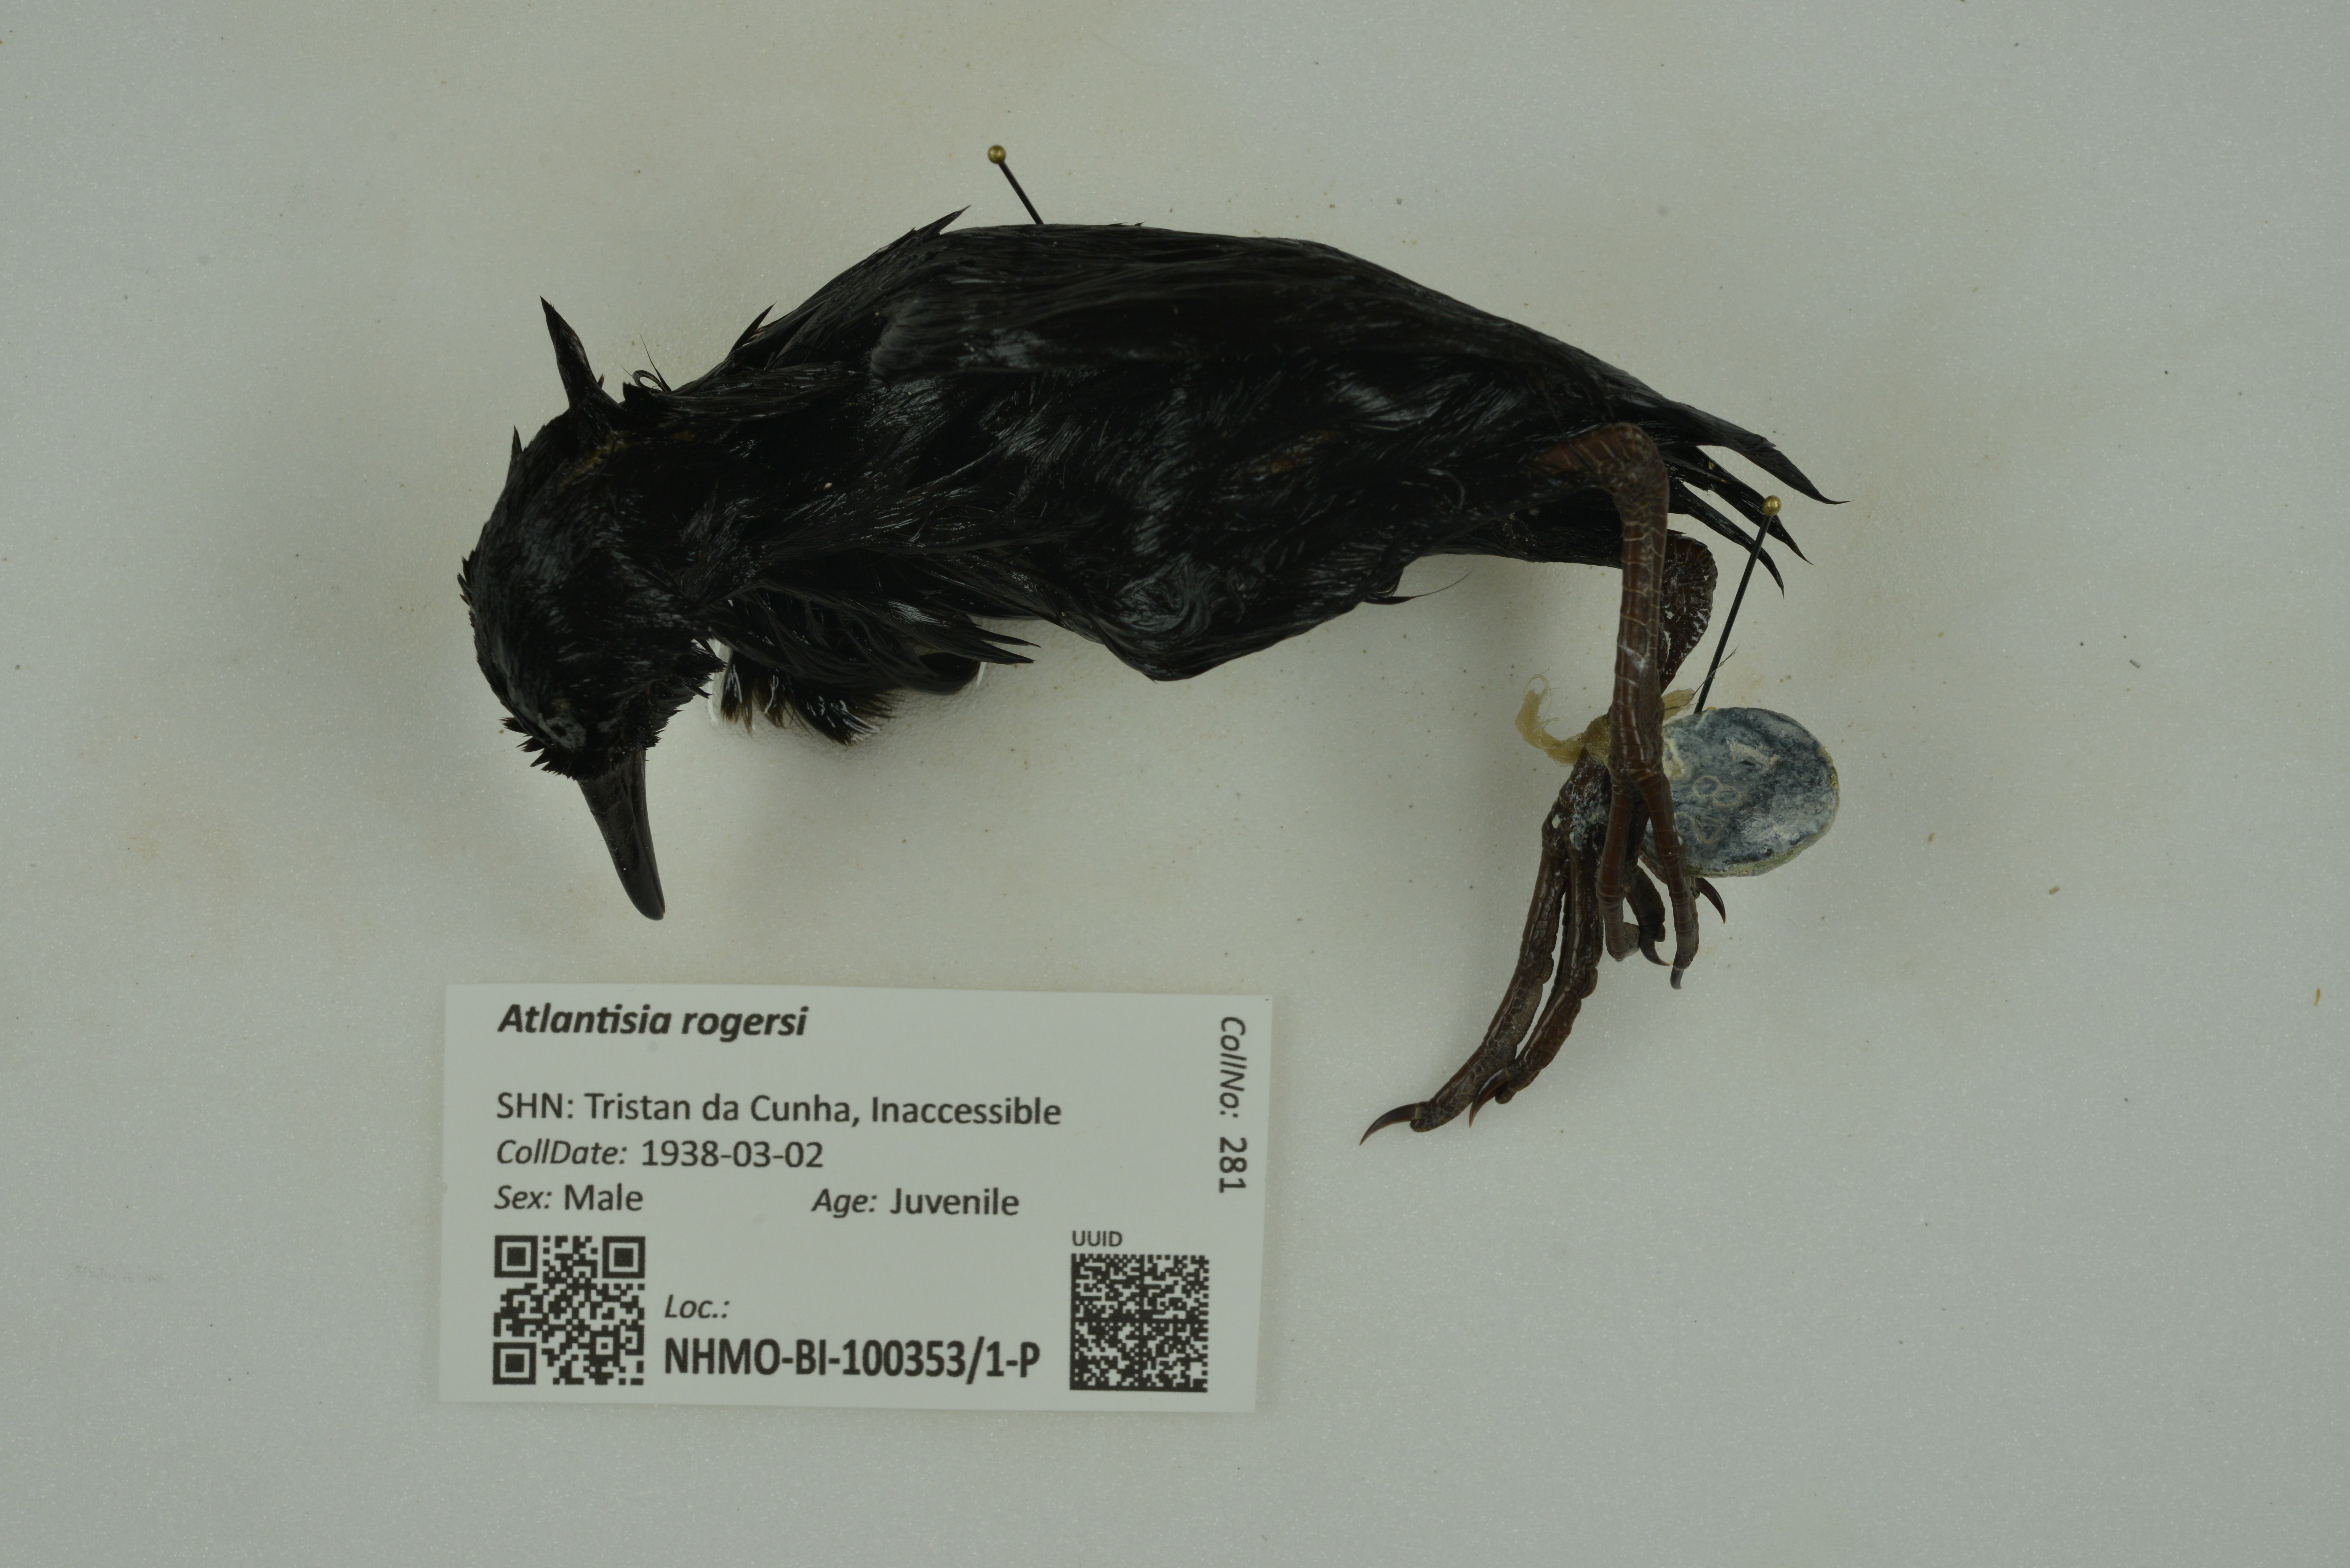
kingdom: Animalia
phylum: Chordata
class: Aves
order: Gruiformes
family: Rallidae
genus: Atlantisia
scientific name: Atlantisia rogersi
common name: Inaccessible island rail
